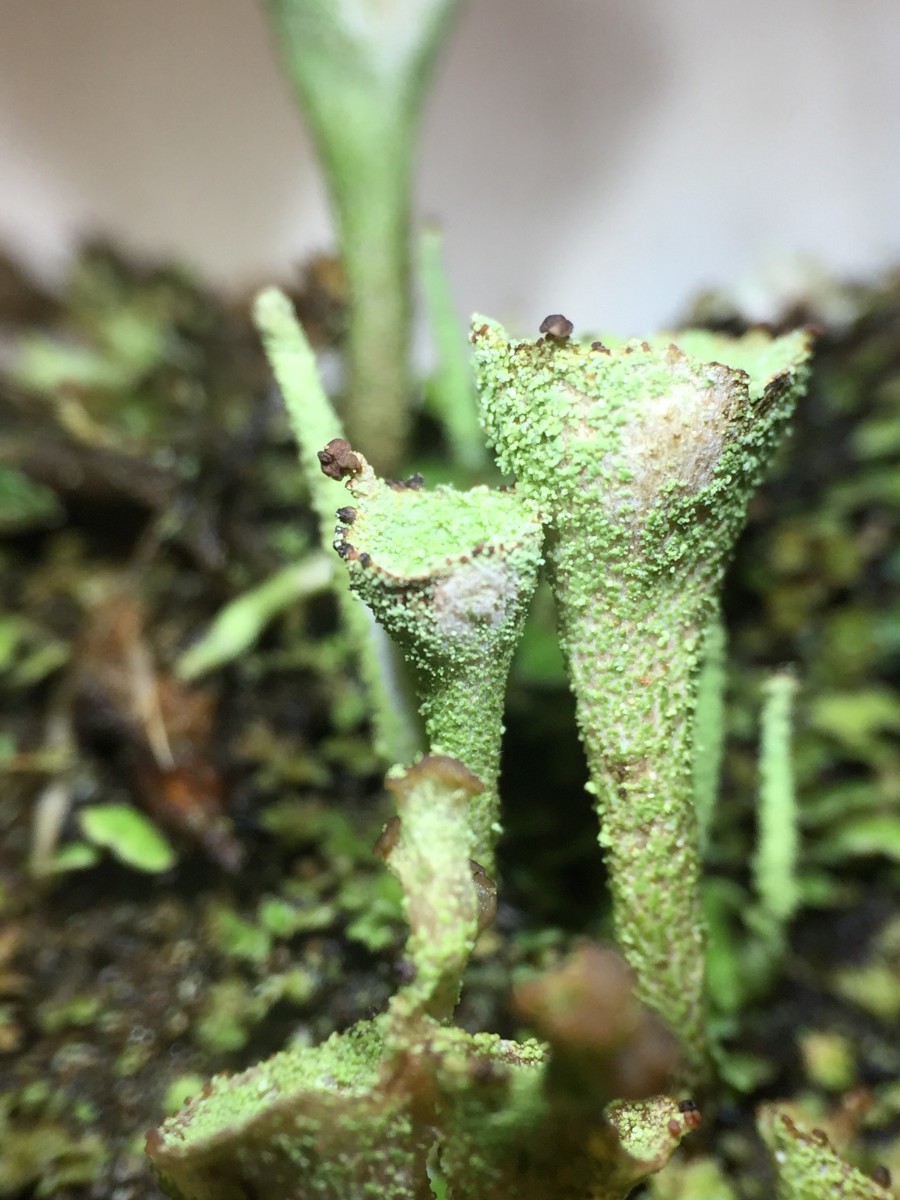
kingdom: Fungi
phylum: Ascomycota
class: Lecanoromycetes
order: Lecanorales
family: Cladoniaceae
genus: Cladonia
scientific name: Cladonia chlorophaea
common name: Mealy pixie cup
